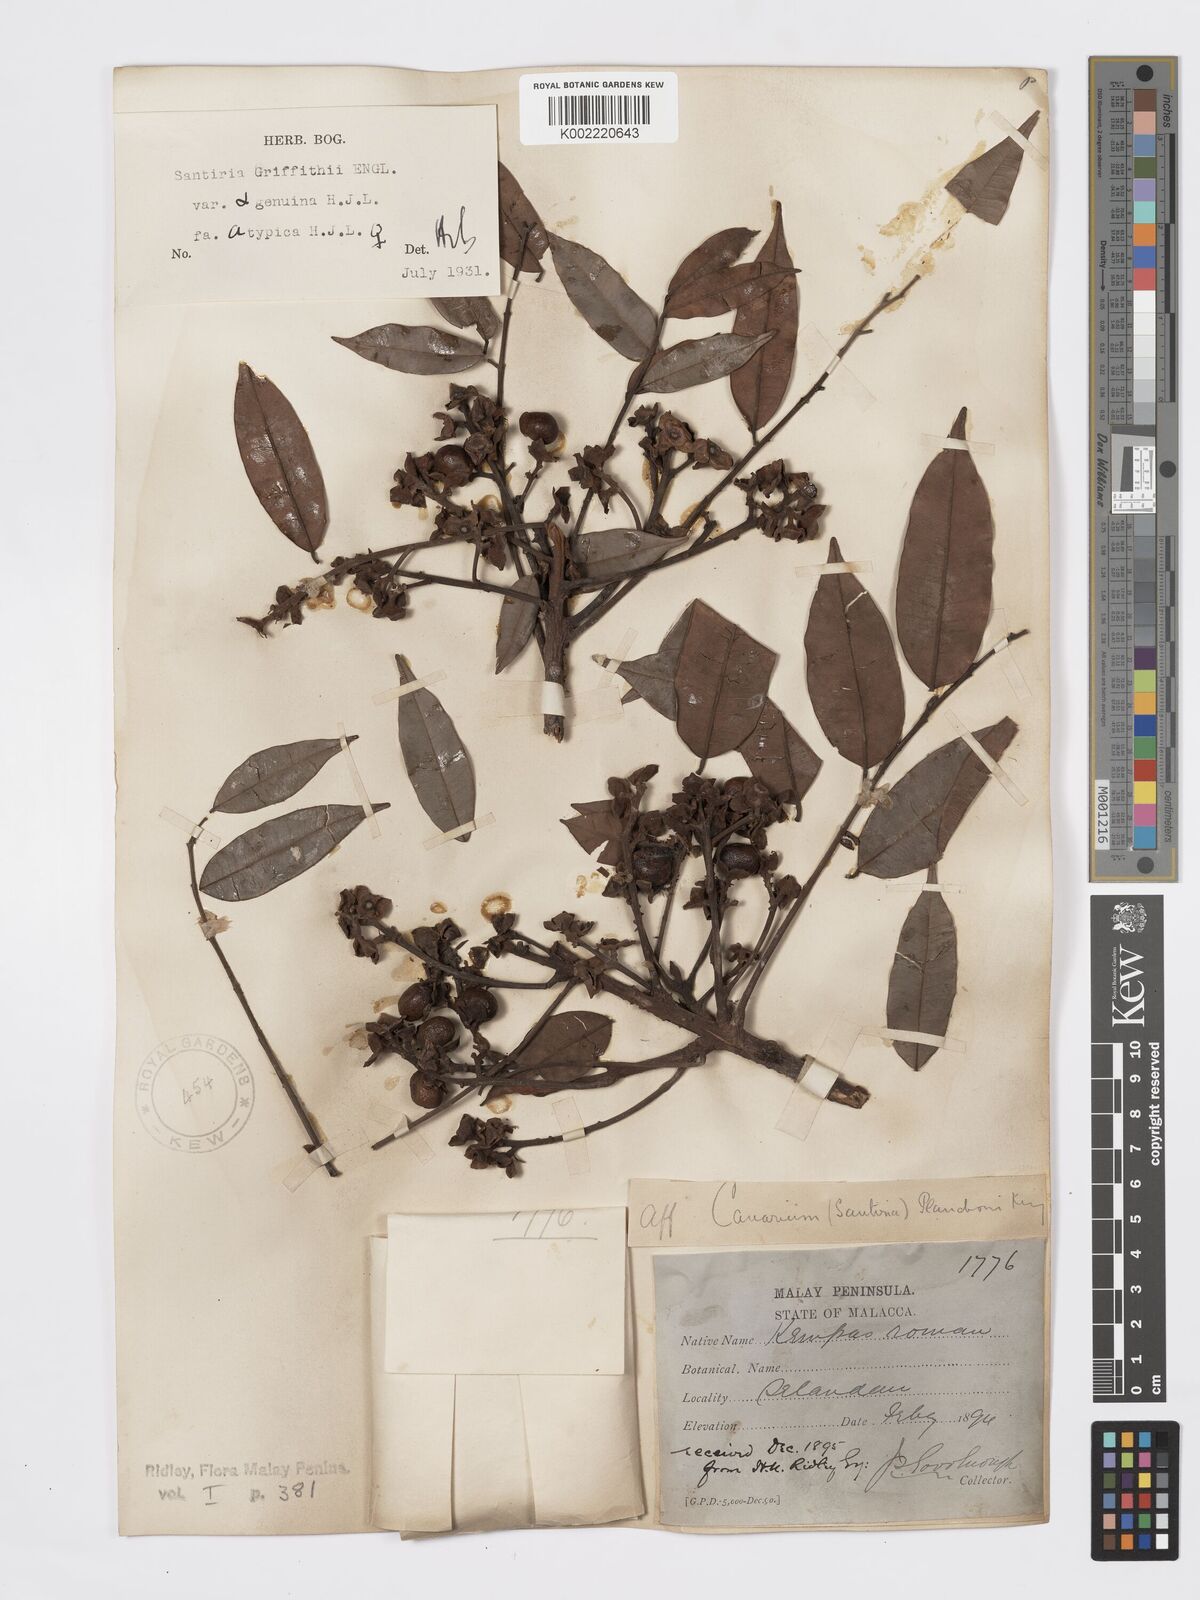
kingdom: Plantae
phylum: Tracheophyta
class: Magnoliopsida
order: Sapindales
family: Burseraceae
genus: Santiria
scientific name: Santiria griffithii
